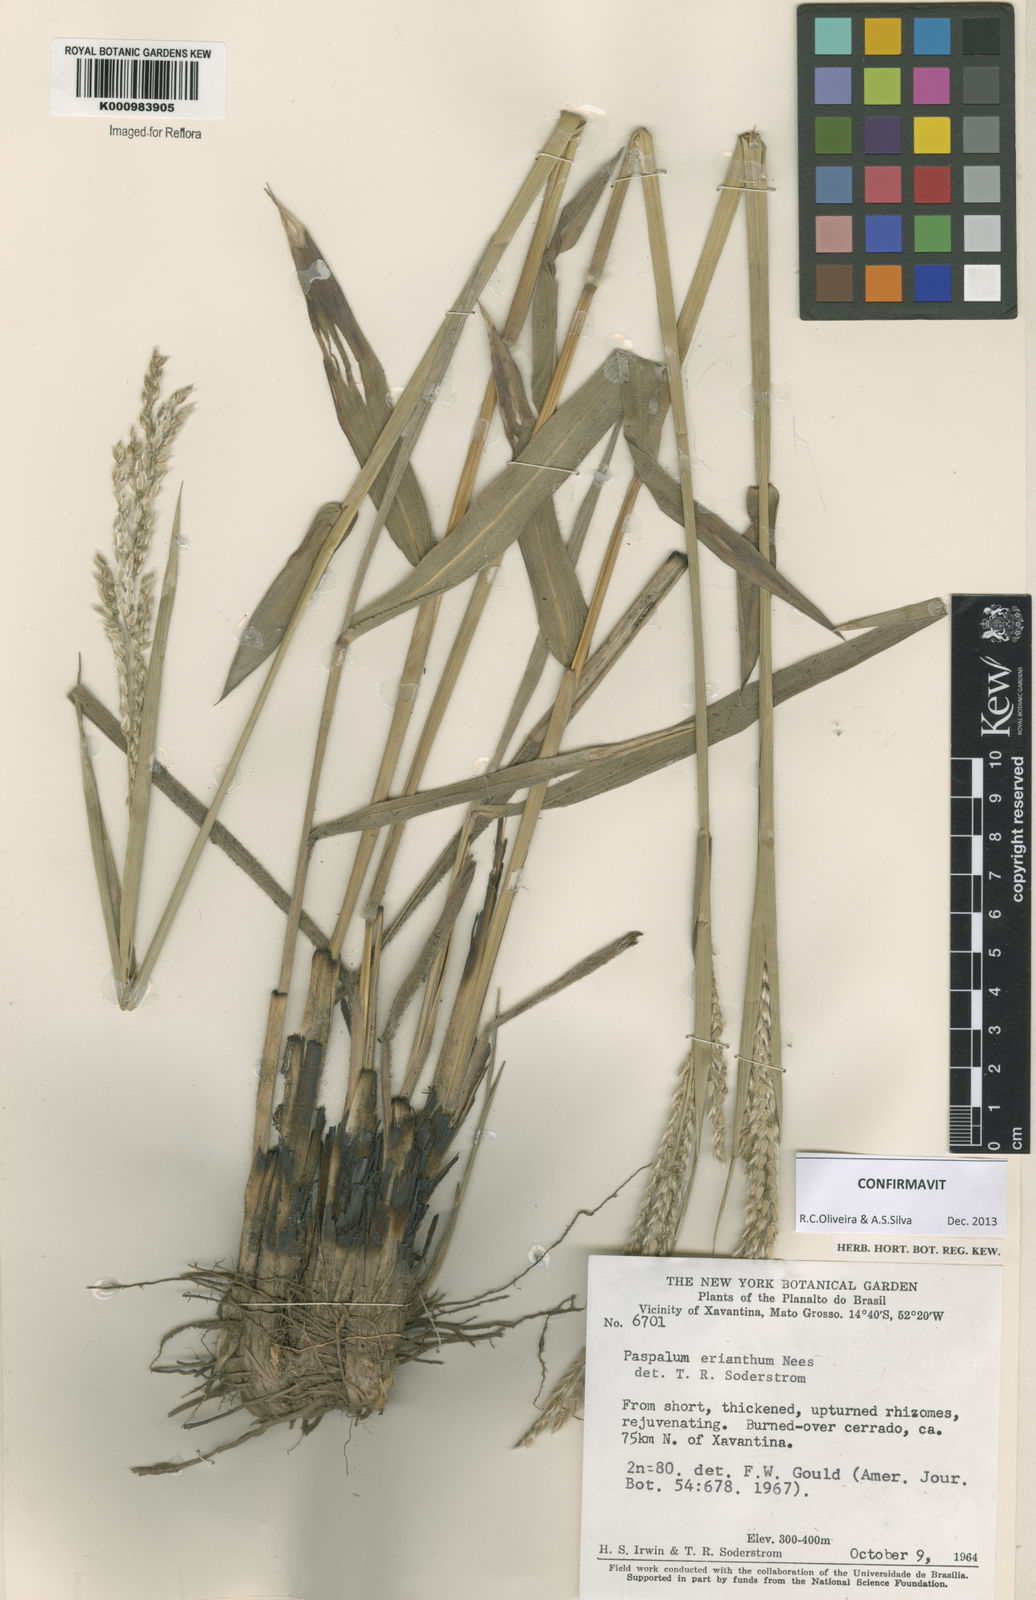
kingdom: Plantae
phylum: Tracheophyta
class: Liliopsida
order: Poales
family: Poaceae
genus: Paspalum
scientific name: Paspalum erianthum
